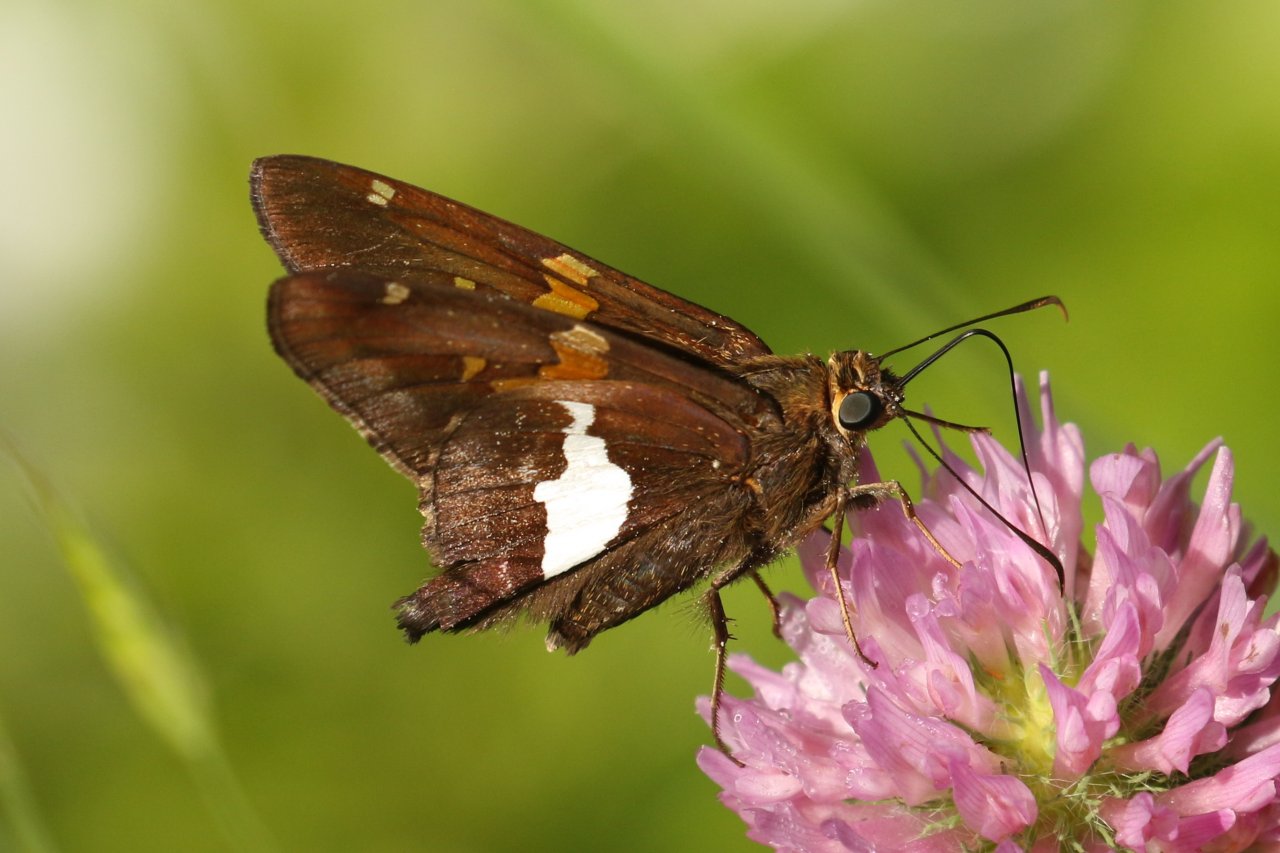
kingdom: Animalia
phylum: Arthropoda
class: Insecta
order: Lepidoptera
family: Hesperiidae
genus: Epargyreus
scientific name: Epargyreus clarus
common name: Silver-spotted Skipper
